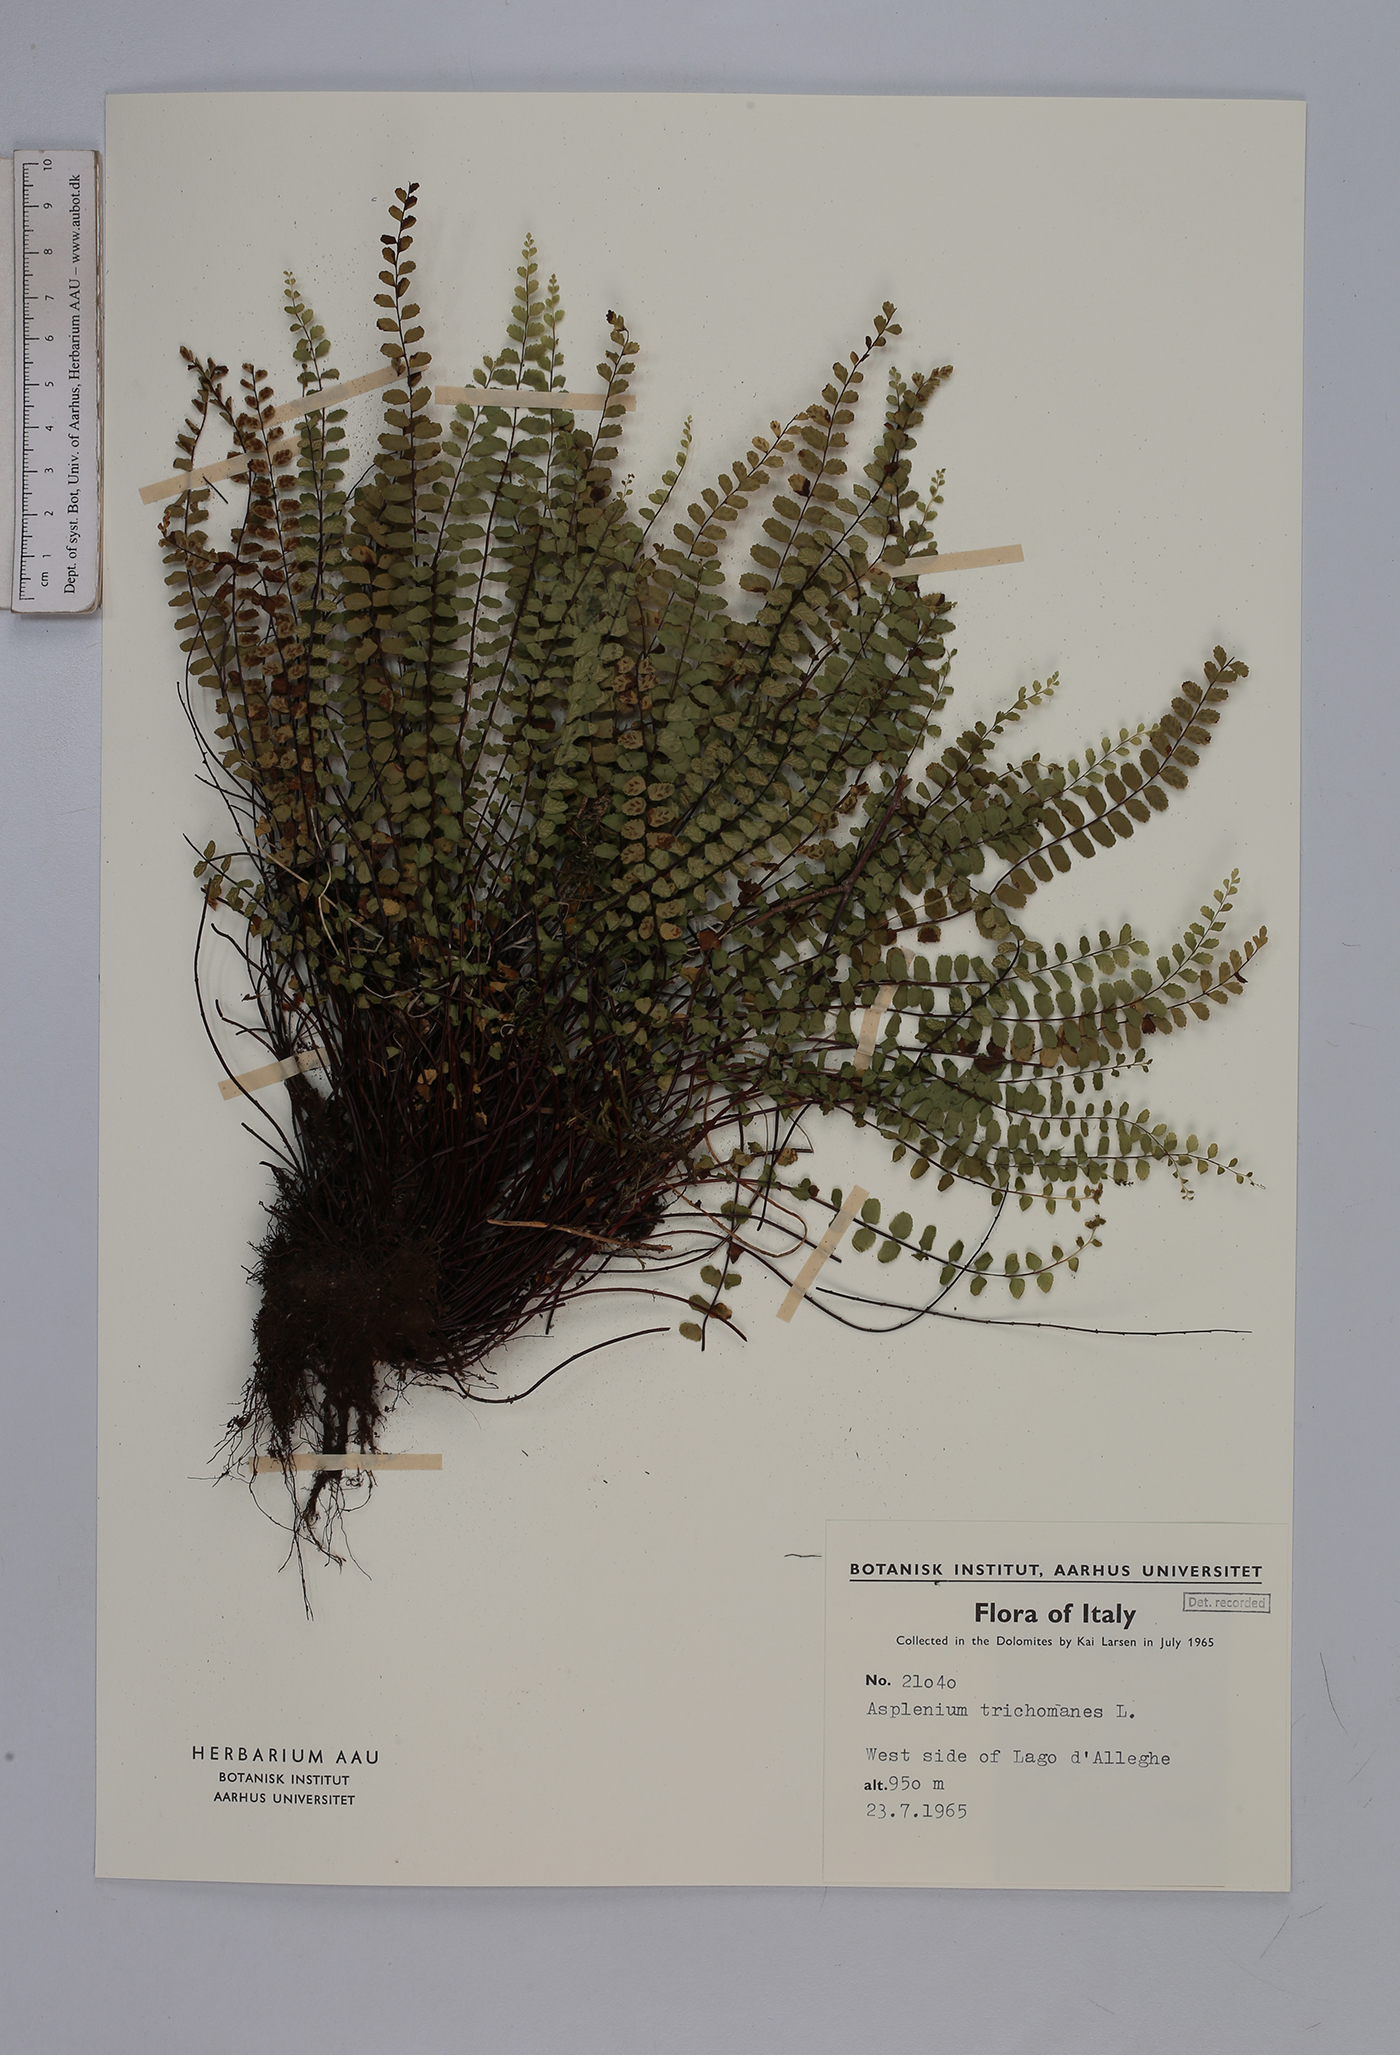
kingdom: Plantae
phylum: Tracheophyta
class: Polypodiopsida
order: Polypodiales
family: Aspleniaceae
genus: Asplenium
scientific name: Asplenium trichomanes
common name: Maidenhair spleenwort
